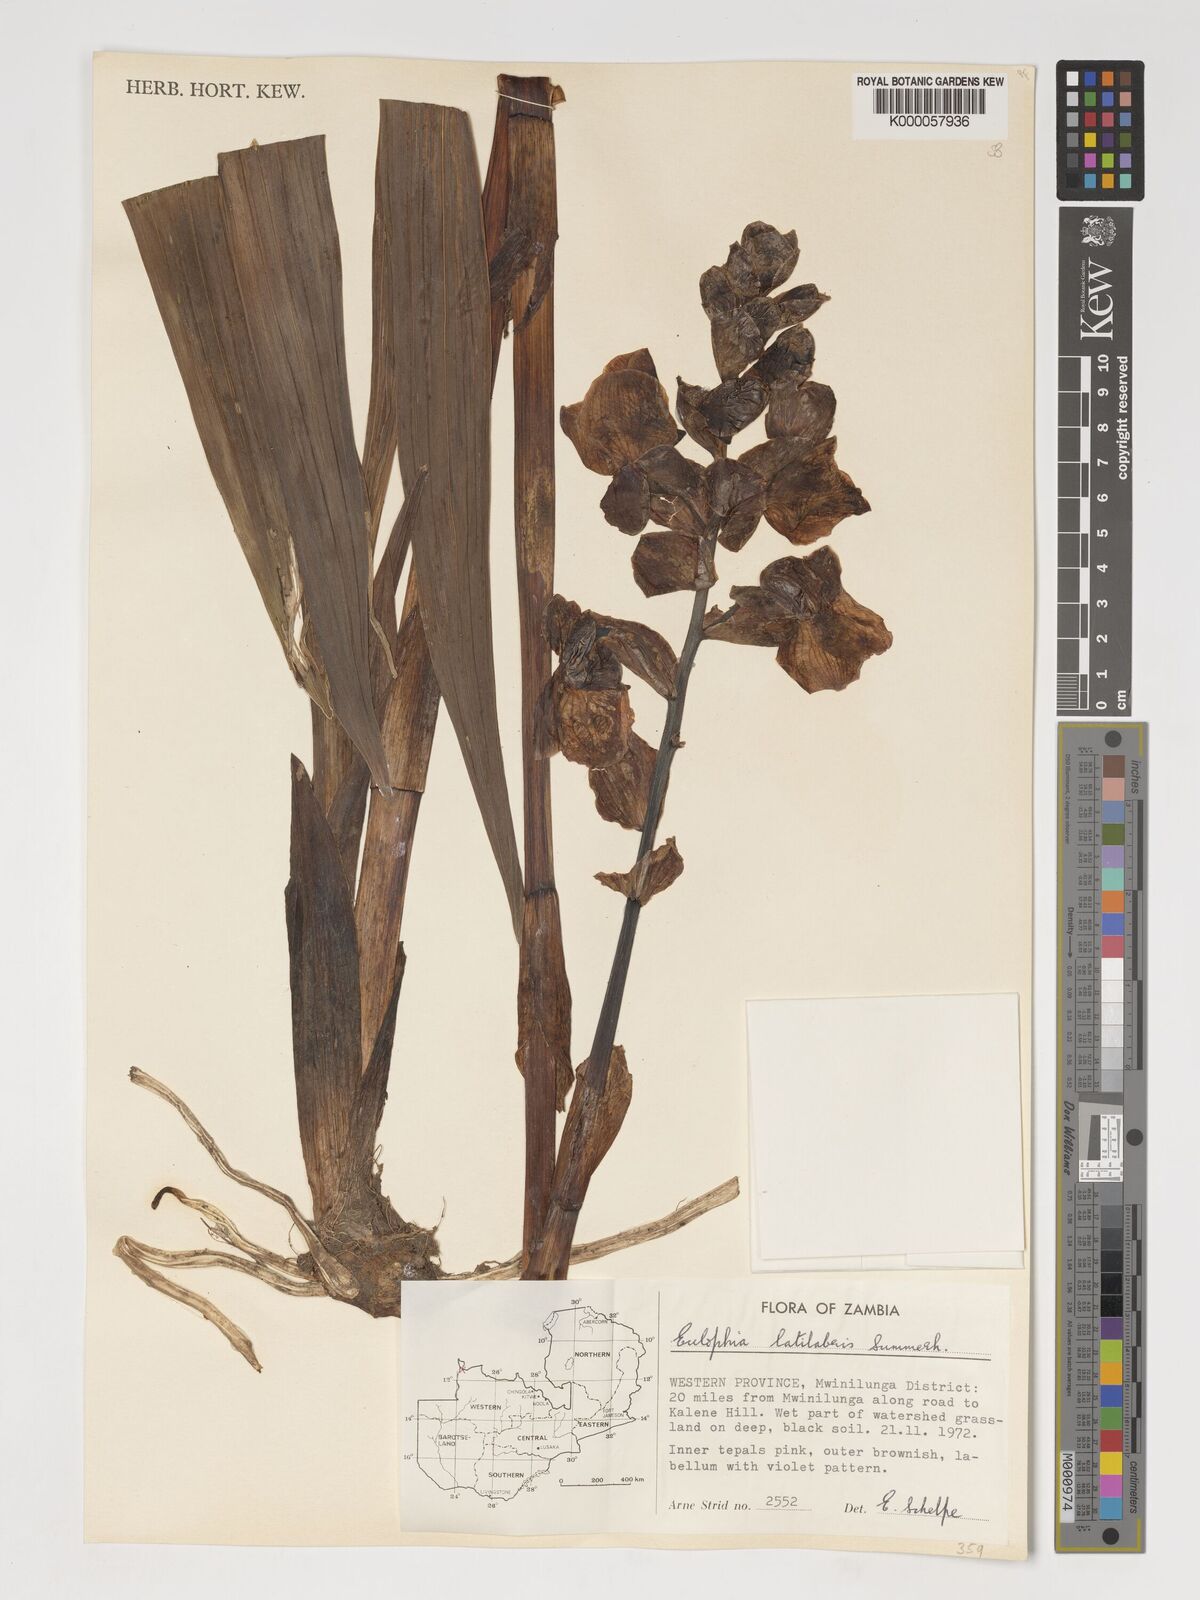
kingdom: Plantae
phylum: Tracheophyta
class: Liliopsida
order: Asparagales
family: Orchidaceae
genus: Eulophia
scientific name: Eulophia latilabris
